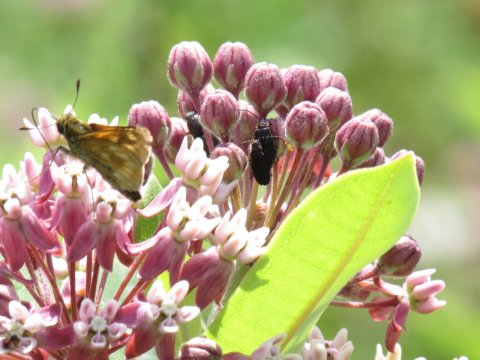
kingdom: Animalia
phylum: Arthropoda
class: Insecta
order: Lepidoptera
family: Hesperiidae
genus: Polites
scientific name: Polites
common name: Long Dash Skipper
